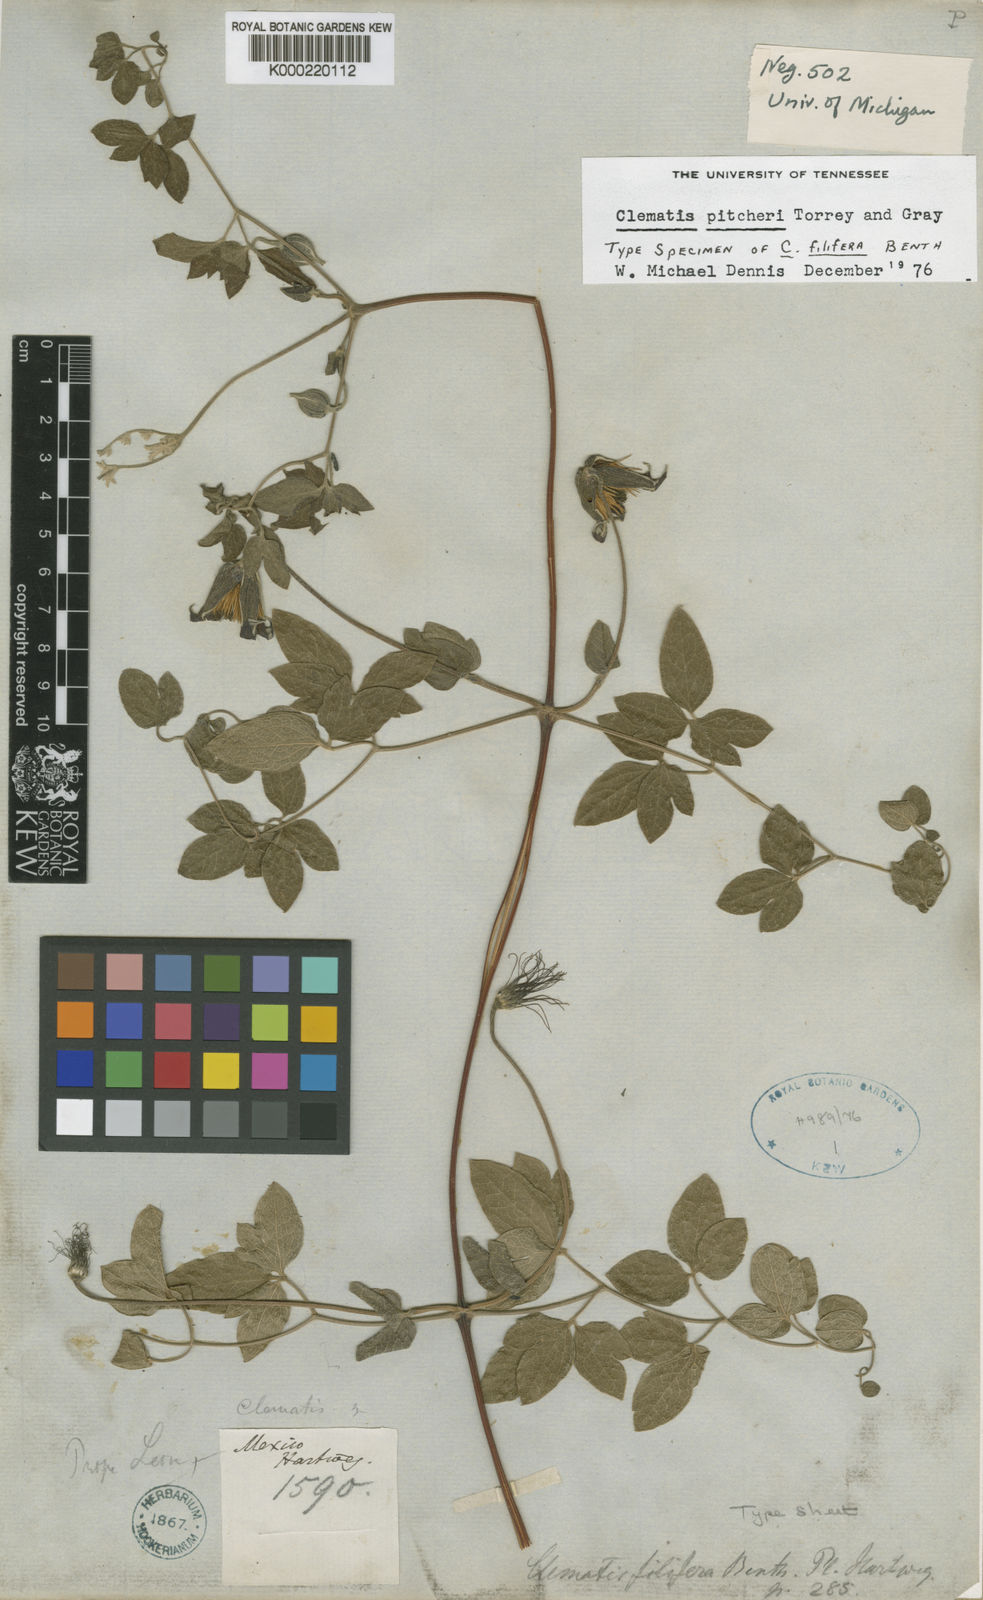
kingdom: Plantae
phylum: Tracheophyta
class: Magnoliopsida
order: Ranunculales
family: Ranunculaceae
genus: Clematis
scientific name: Clematis pitcheri
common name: Bellflower clematis
